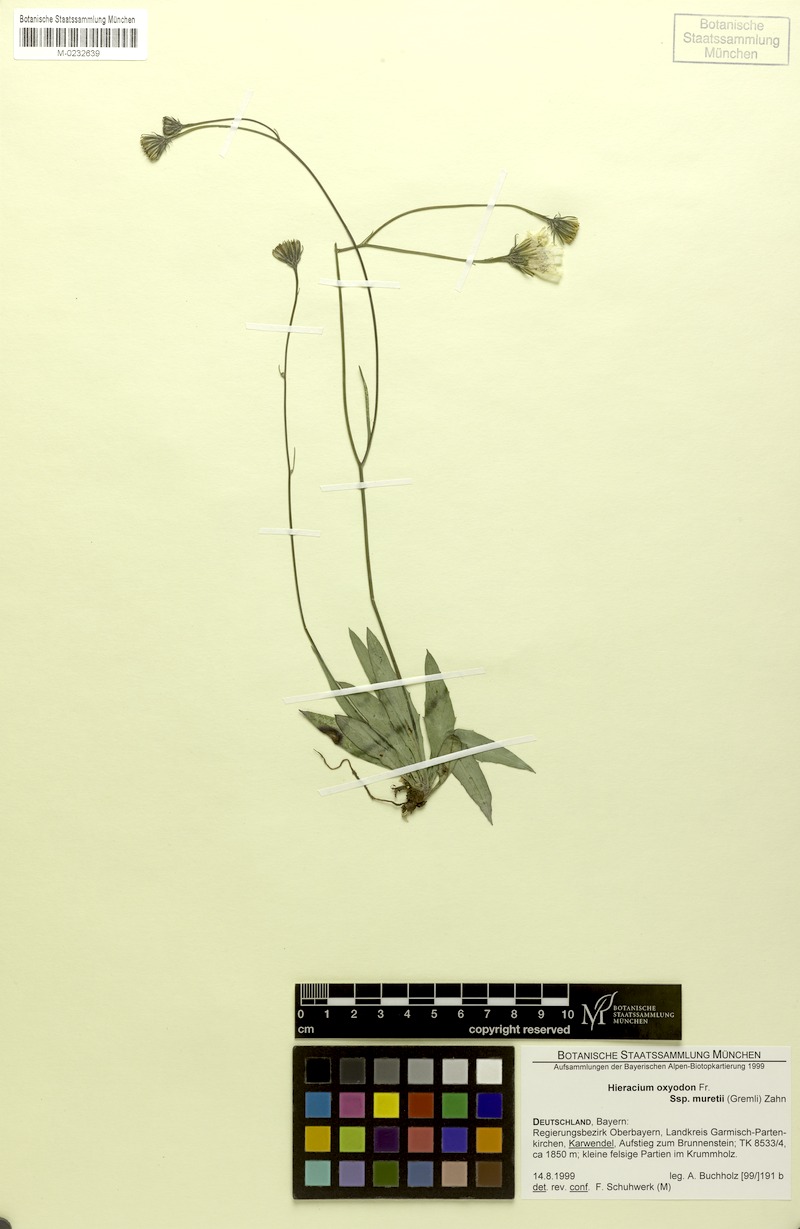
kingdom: Plantae
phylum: Tracheophyta
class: Magnoliopsida
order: Asterales
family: Asteraceae
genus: Hieracium
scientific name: Hieracium oxyodon
